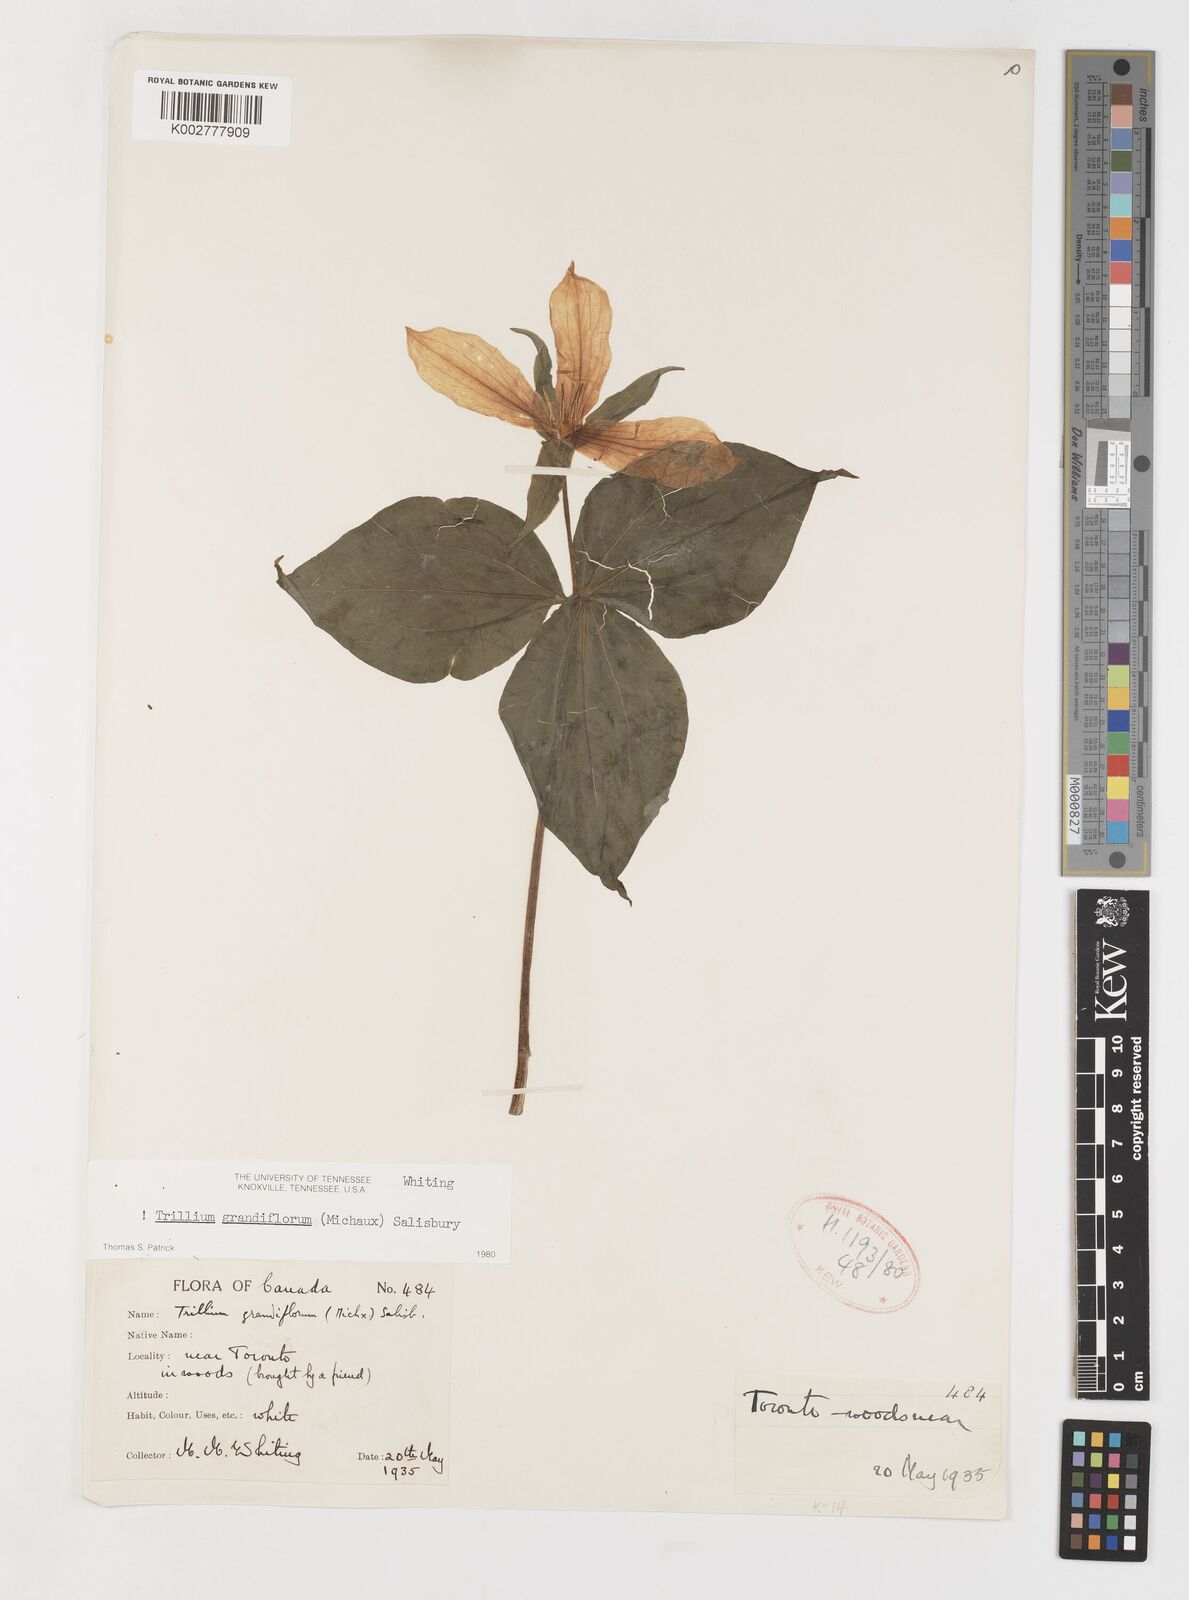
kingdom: Plantae
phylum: Tracheophyta
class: Liliopsida
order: Liliales
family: Melanthiaceae
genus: Trillium
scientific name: Trillium grandiflorum
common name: Great white trillium
